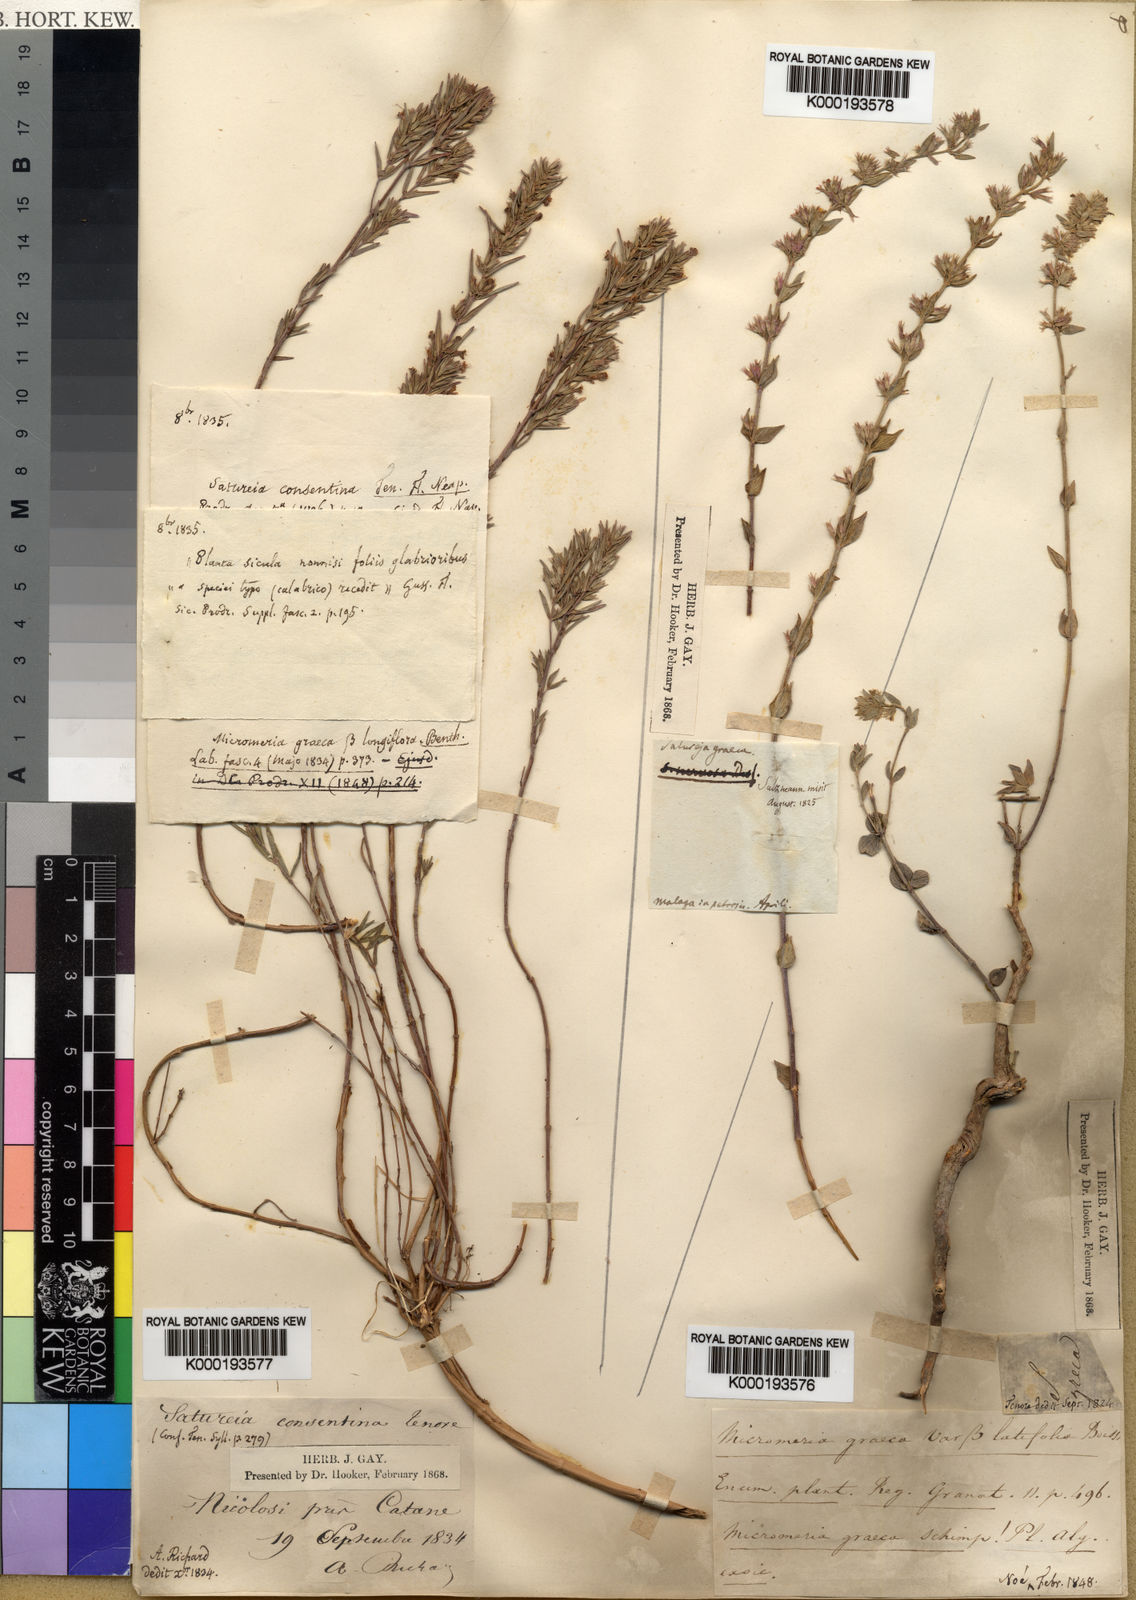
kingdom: Plantae
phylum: Tracheophyta
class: Magnoliopsida
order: Lamiales
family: Lamiaceae
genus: Micromeria
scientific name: Micromeria graeca
